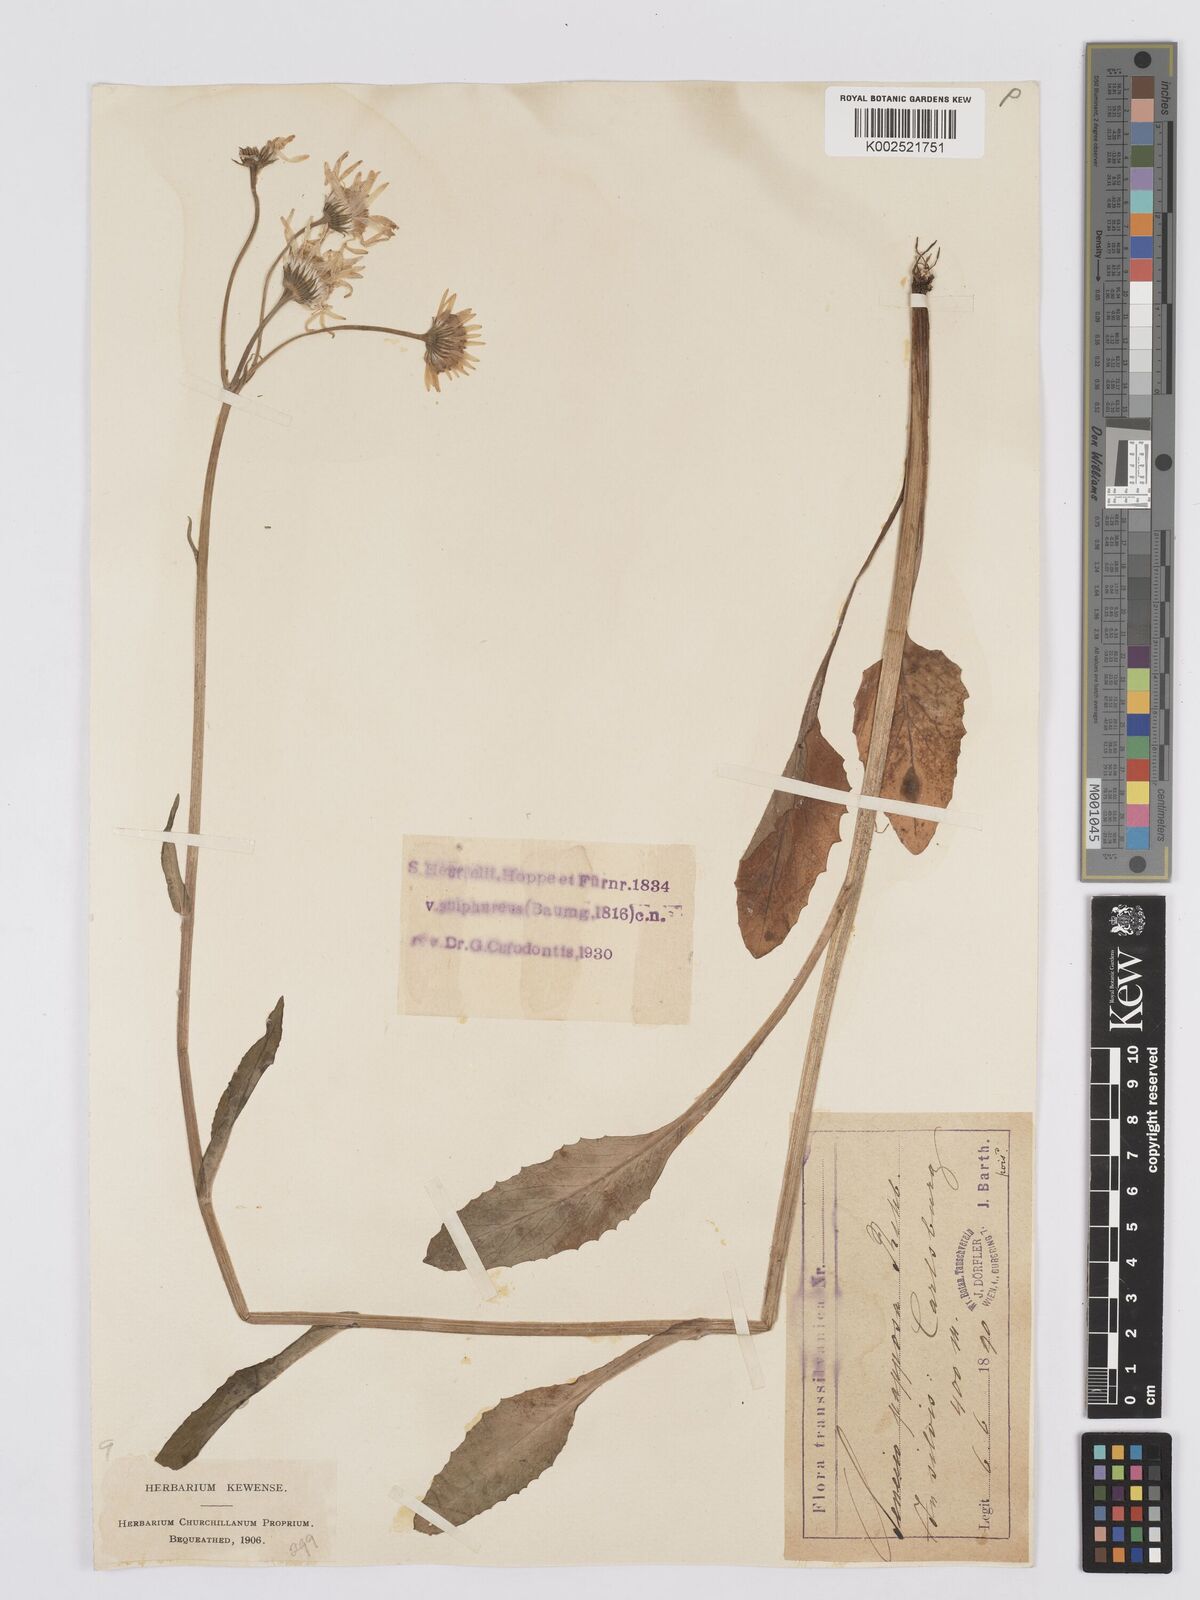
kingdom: Plantae
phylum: Tracheophyta
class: Magnoliopsida
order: Asterales
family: Asteraceae
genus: Tephroseris
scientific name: Tephroseris papposa
